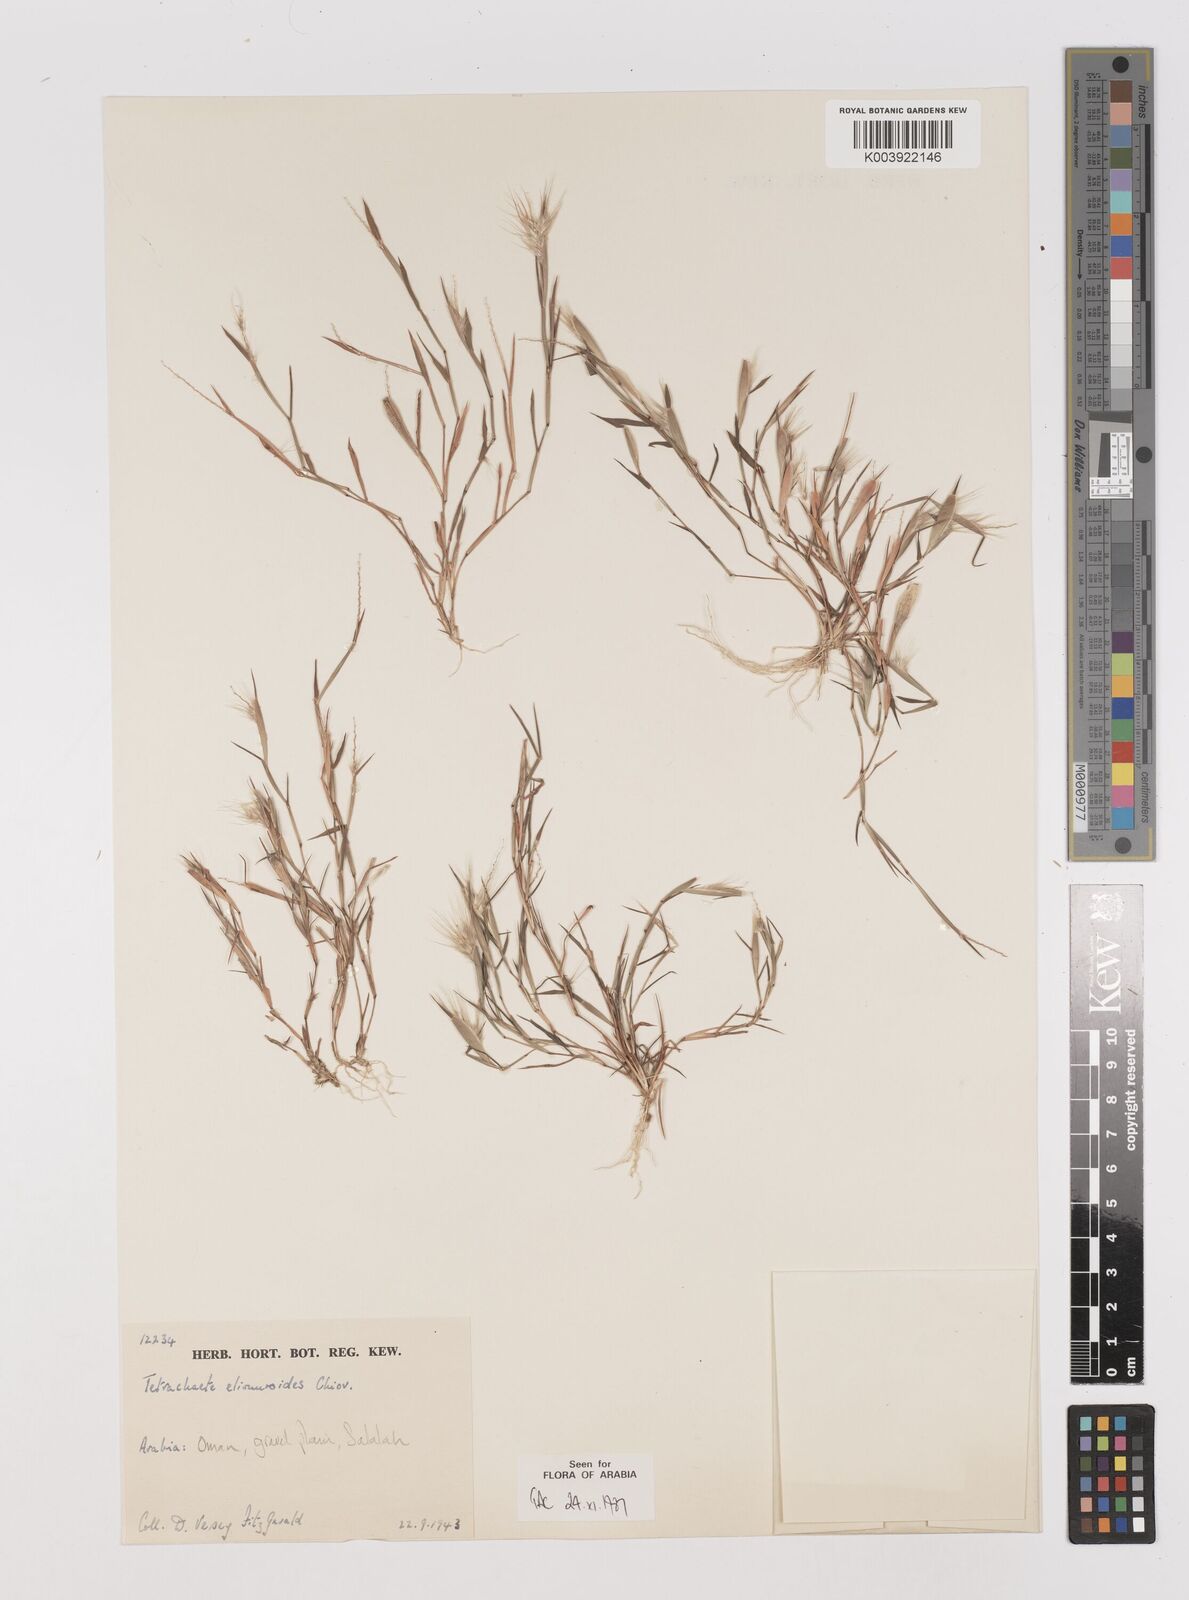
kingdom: Plantae
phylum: Tracheophyta
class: Liliopsida
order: Poales
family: Poaceae
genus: Tetrachaete
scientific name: Tetrachaete elionuroides
